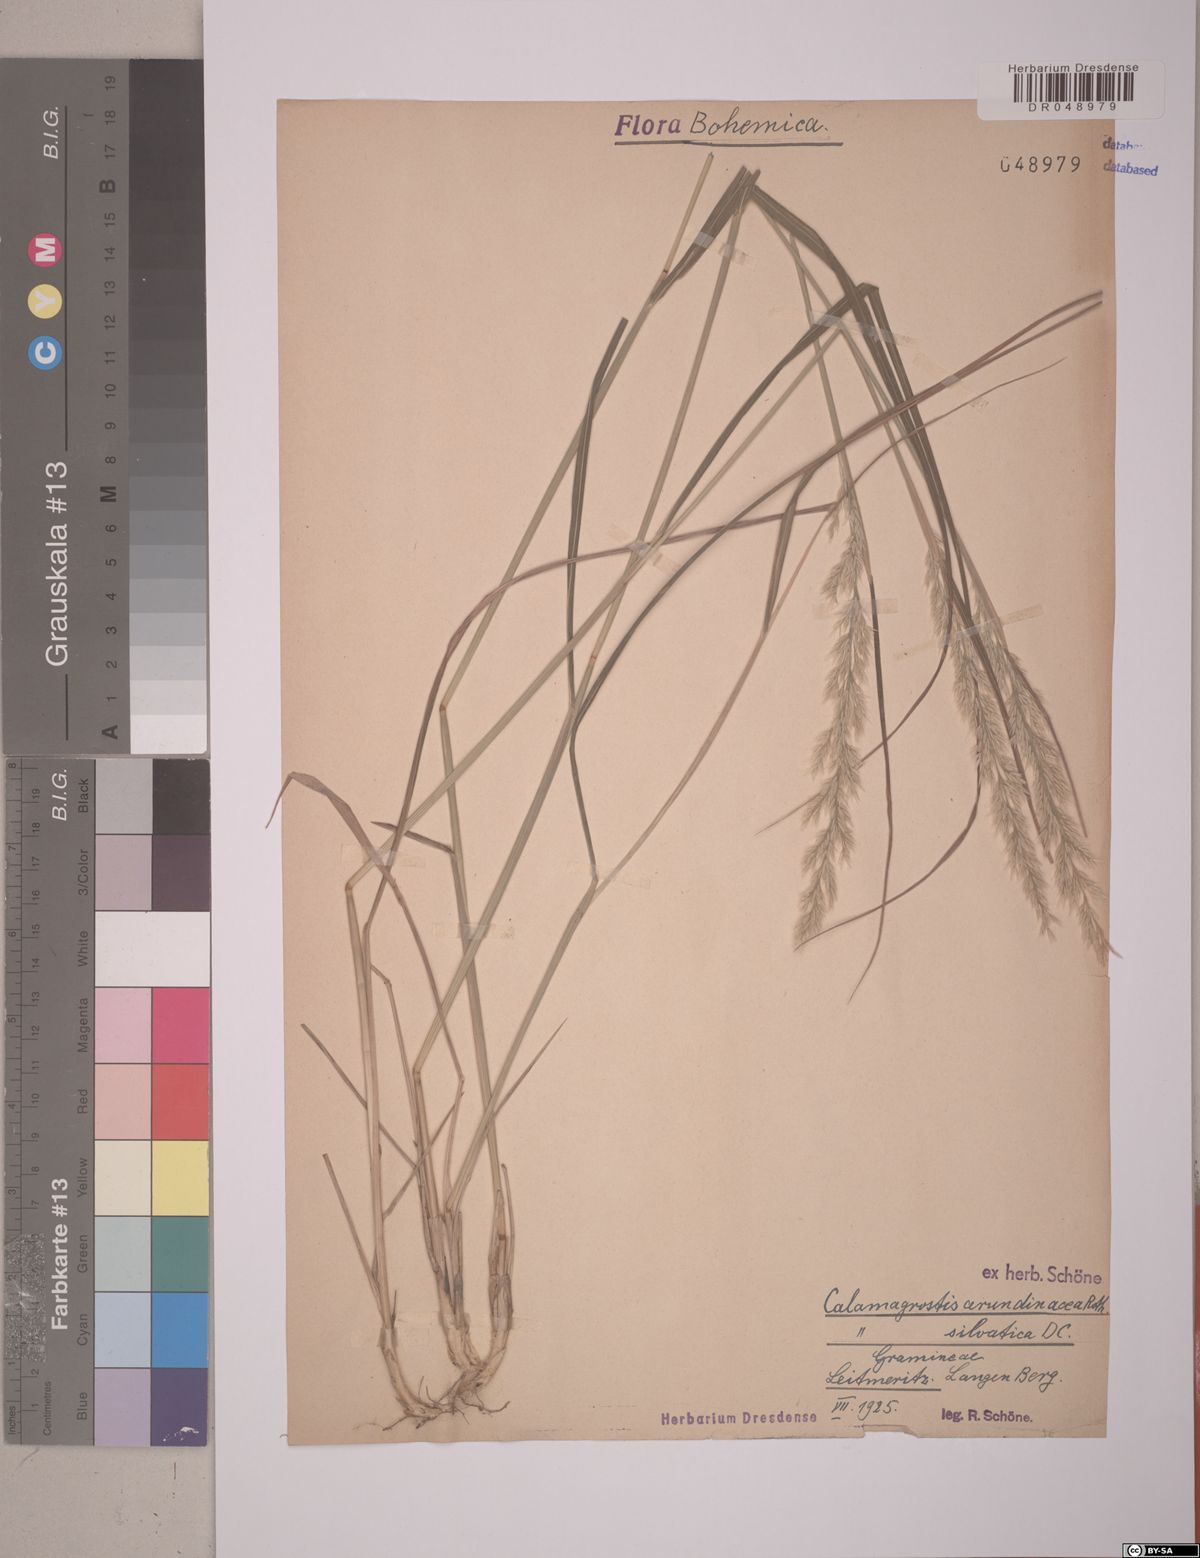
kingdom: Plantae
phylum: Tracheophyta
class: Liliopsida
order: Poales
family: Poaceae
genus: Calamagrostis
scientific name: Calamagrostis arundinacea
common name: Metskastik
